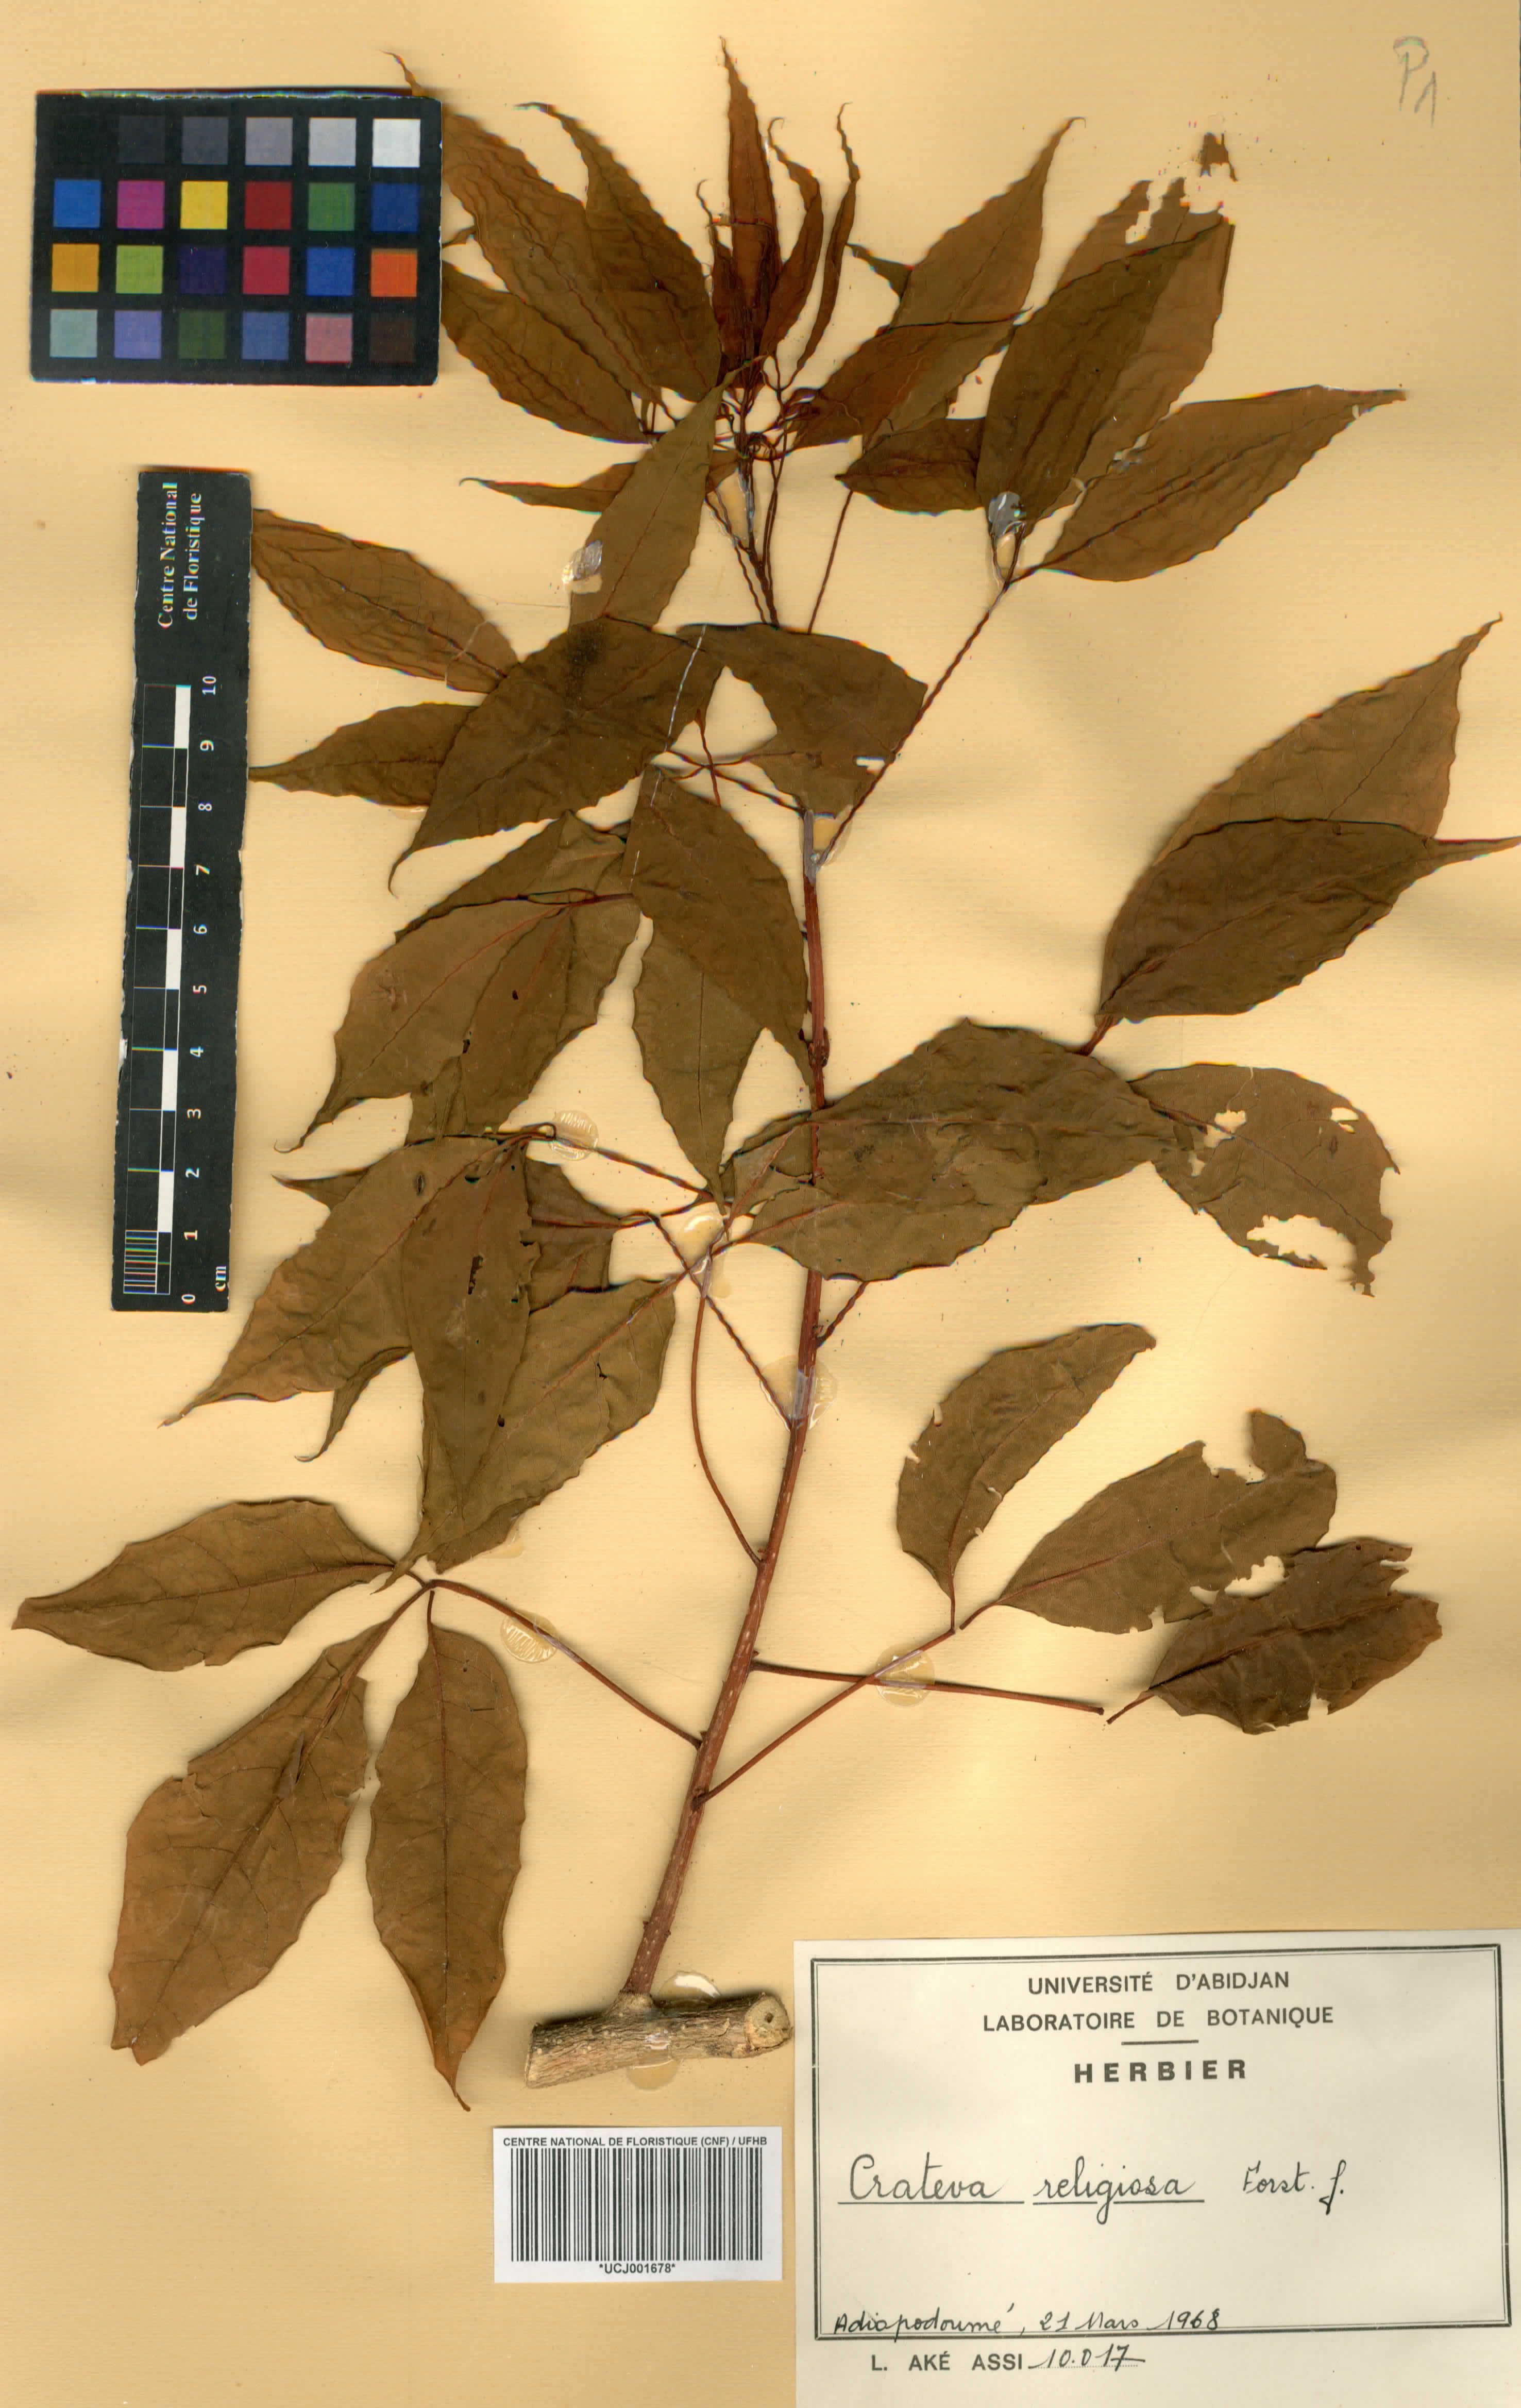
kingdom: Plantae
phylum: Tracheophyta
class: Magnoliopsida
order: Brassicales
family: Capparaceae
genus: Crateva
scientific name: Crateva religiosa
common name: March dalur
